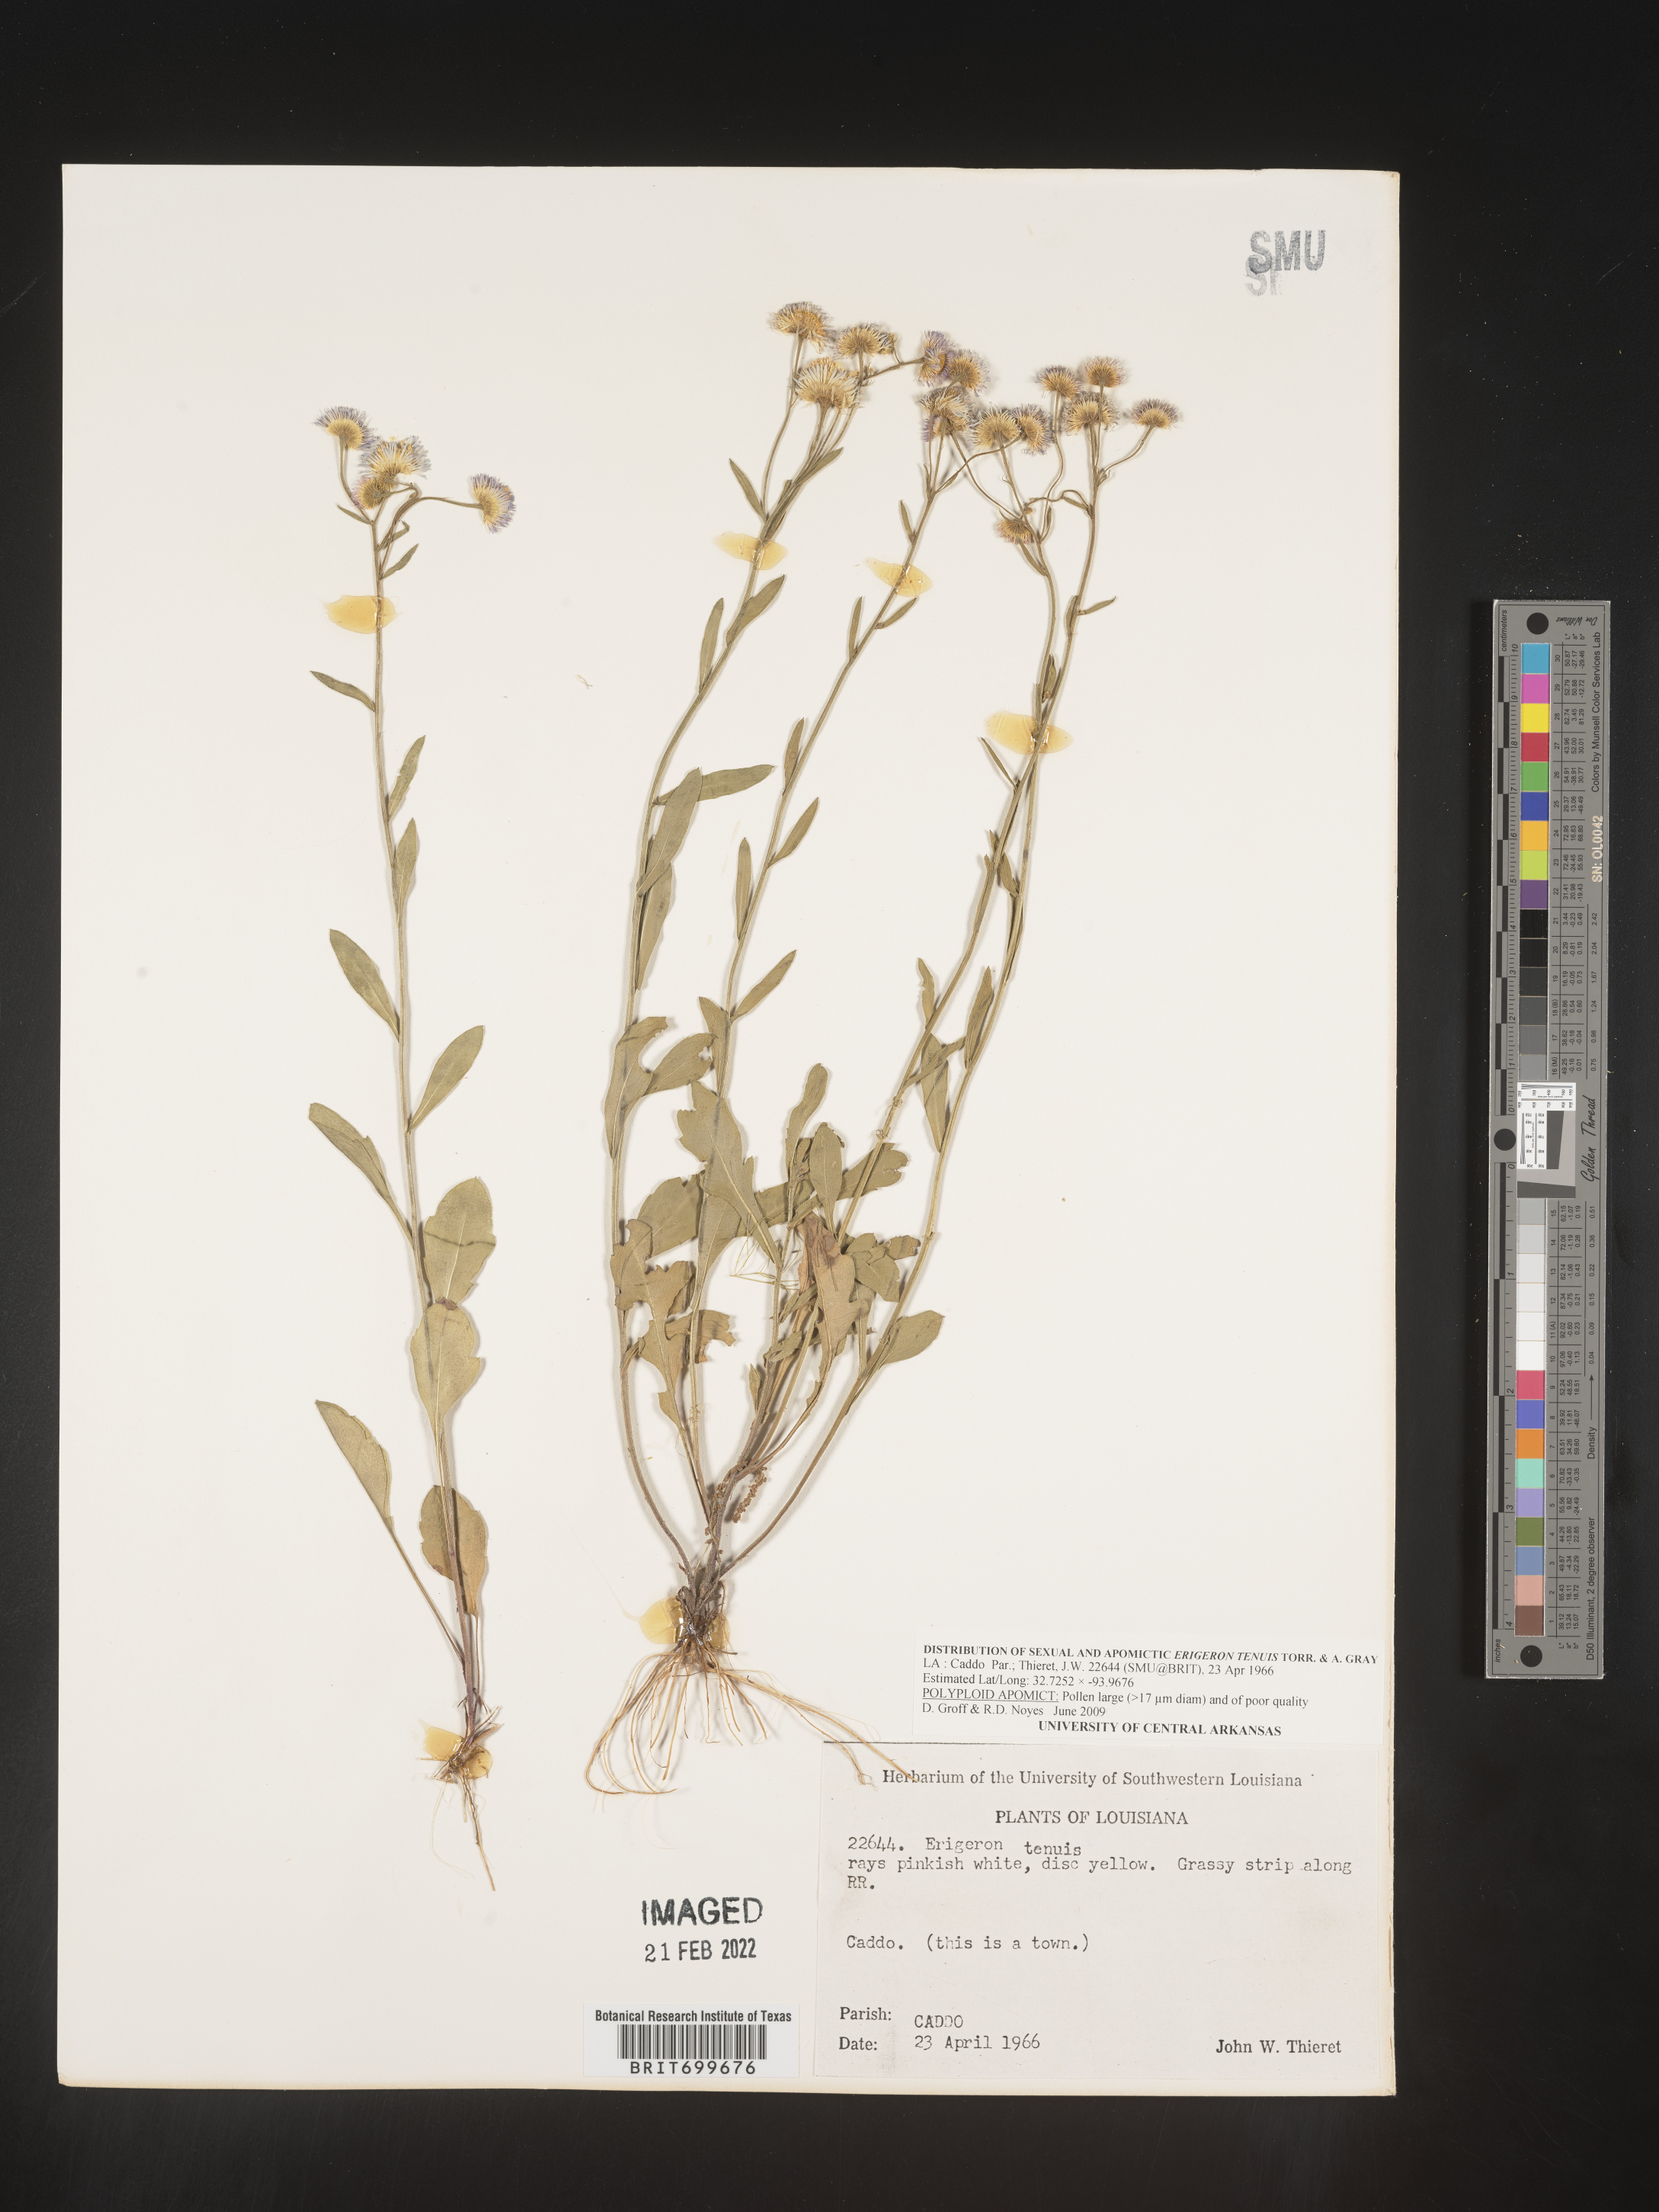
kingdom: Plantae
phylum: Tracheophyta
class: Magnoliopsida
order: Asterales
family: Asteraceae
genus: Erigeron
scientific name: Erigeron tenuis
